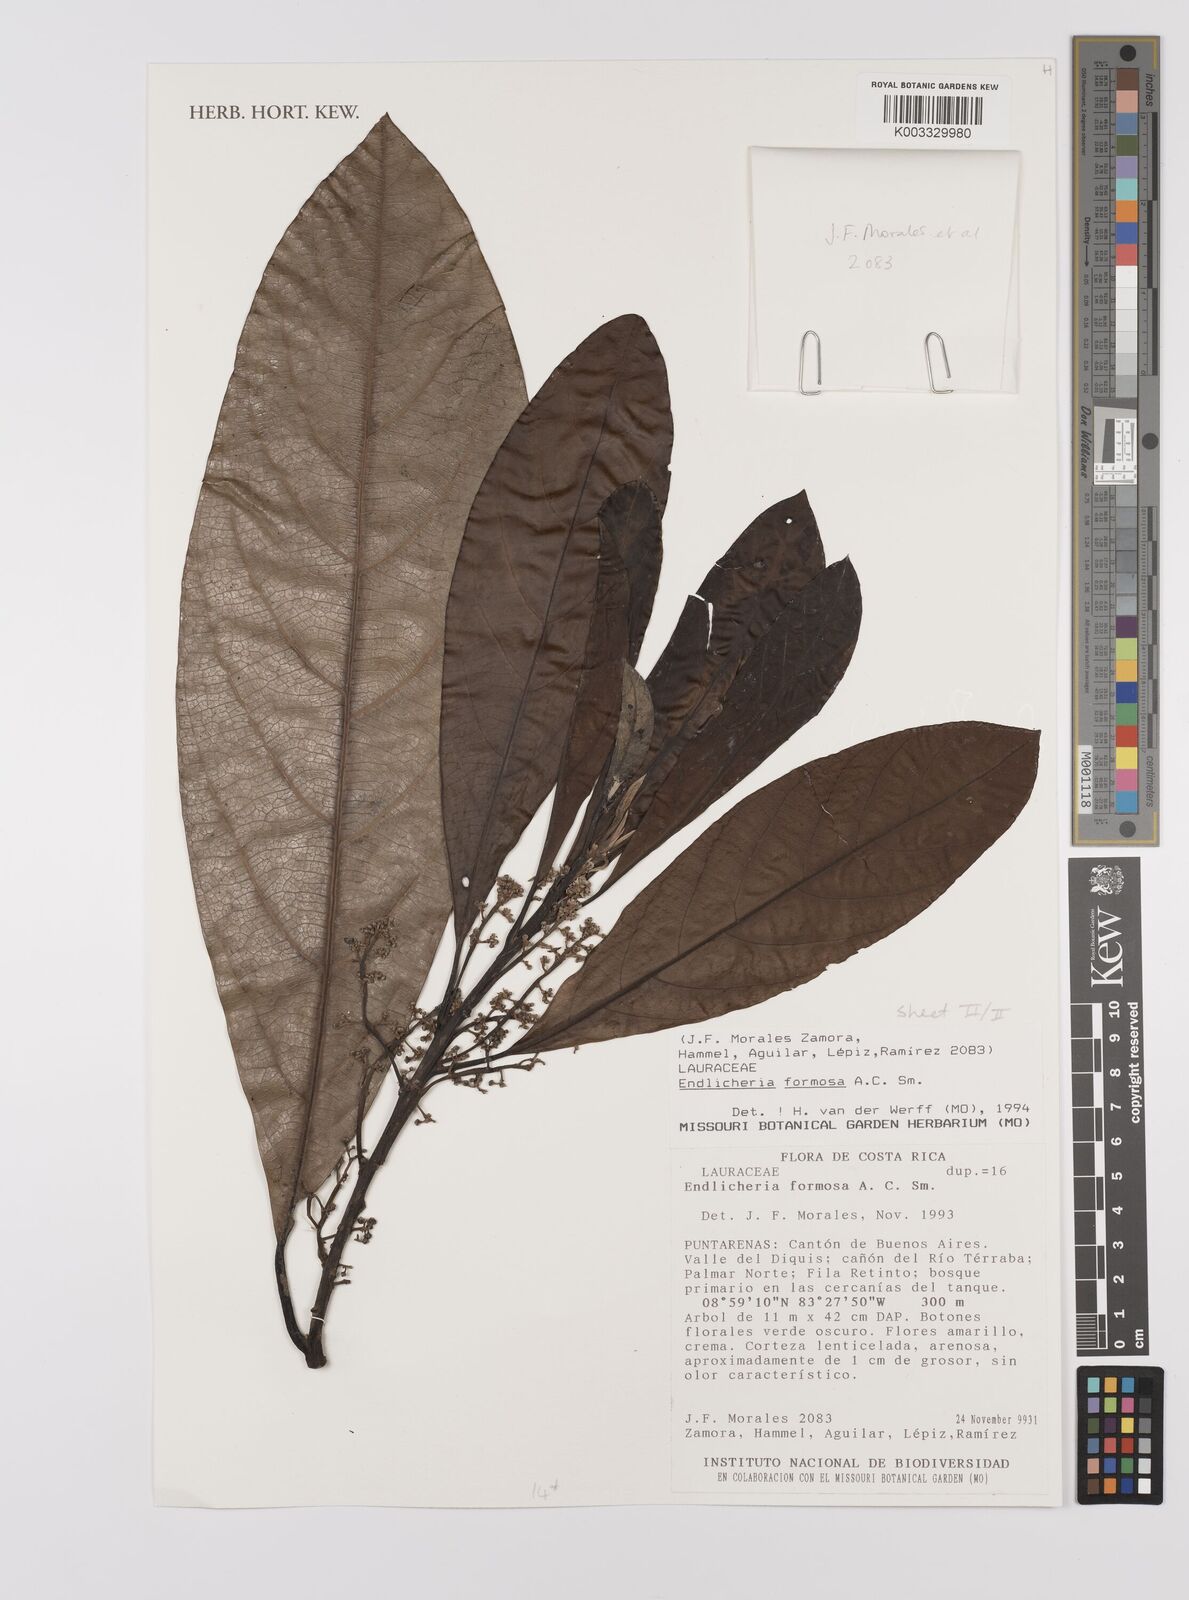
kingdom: Plantae
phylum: Tracheophyta
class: Magnoliopsida
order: Laurales
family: Lauraceae
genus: Endlicheria
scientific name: Endlicheria formosa
